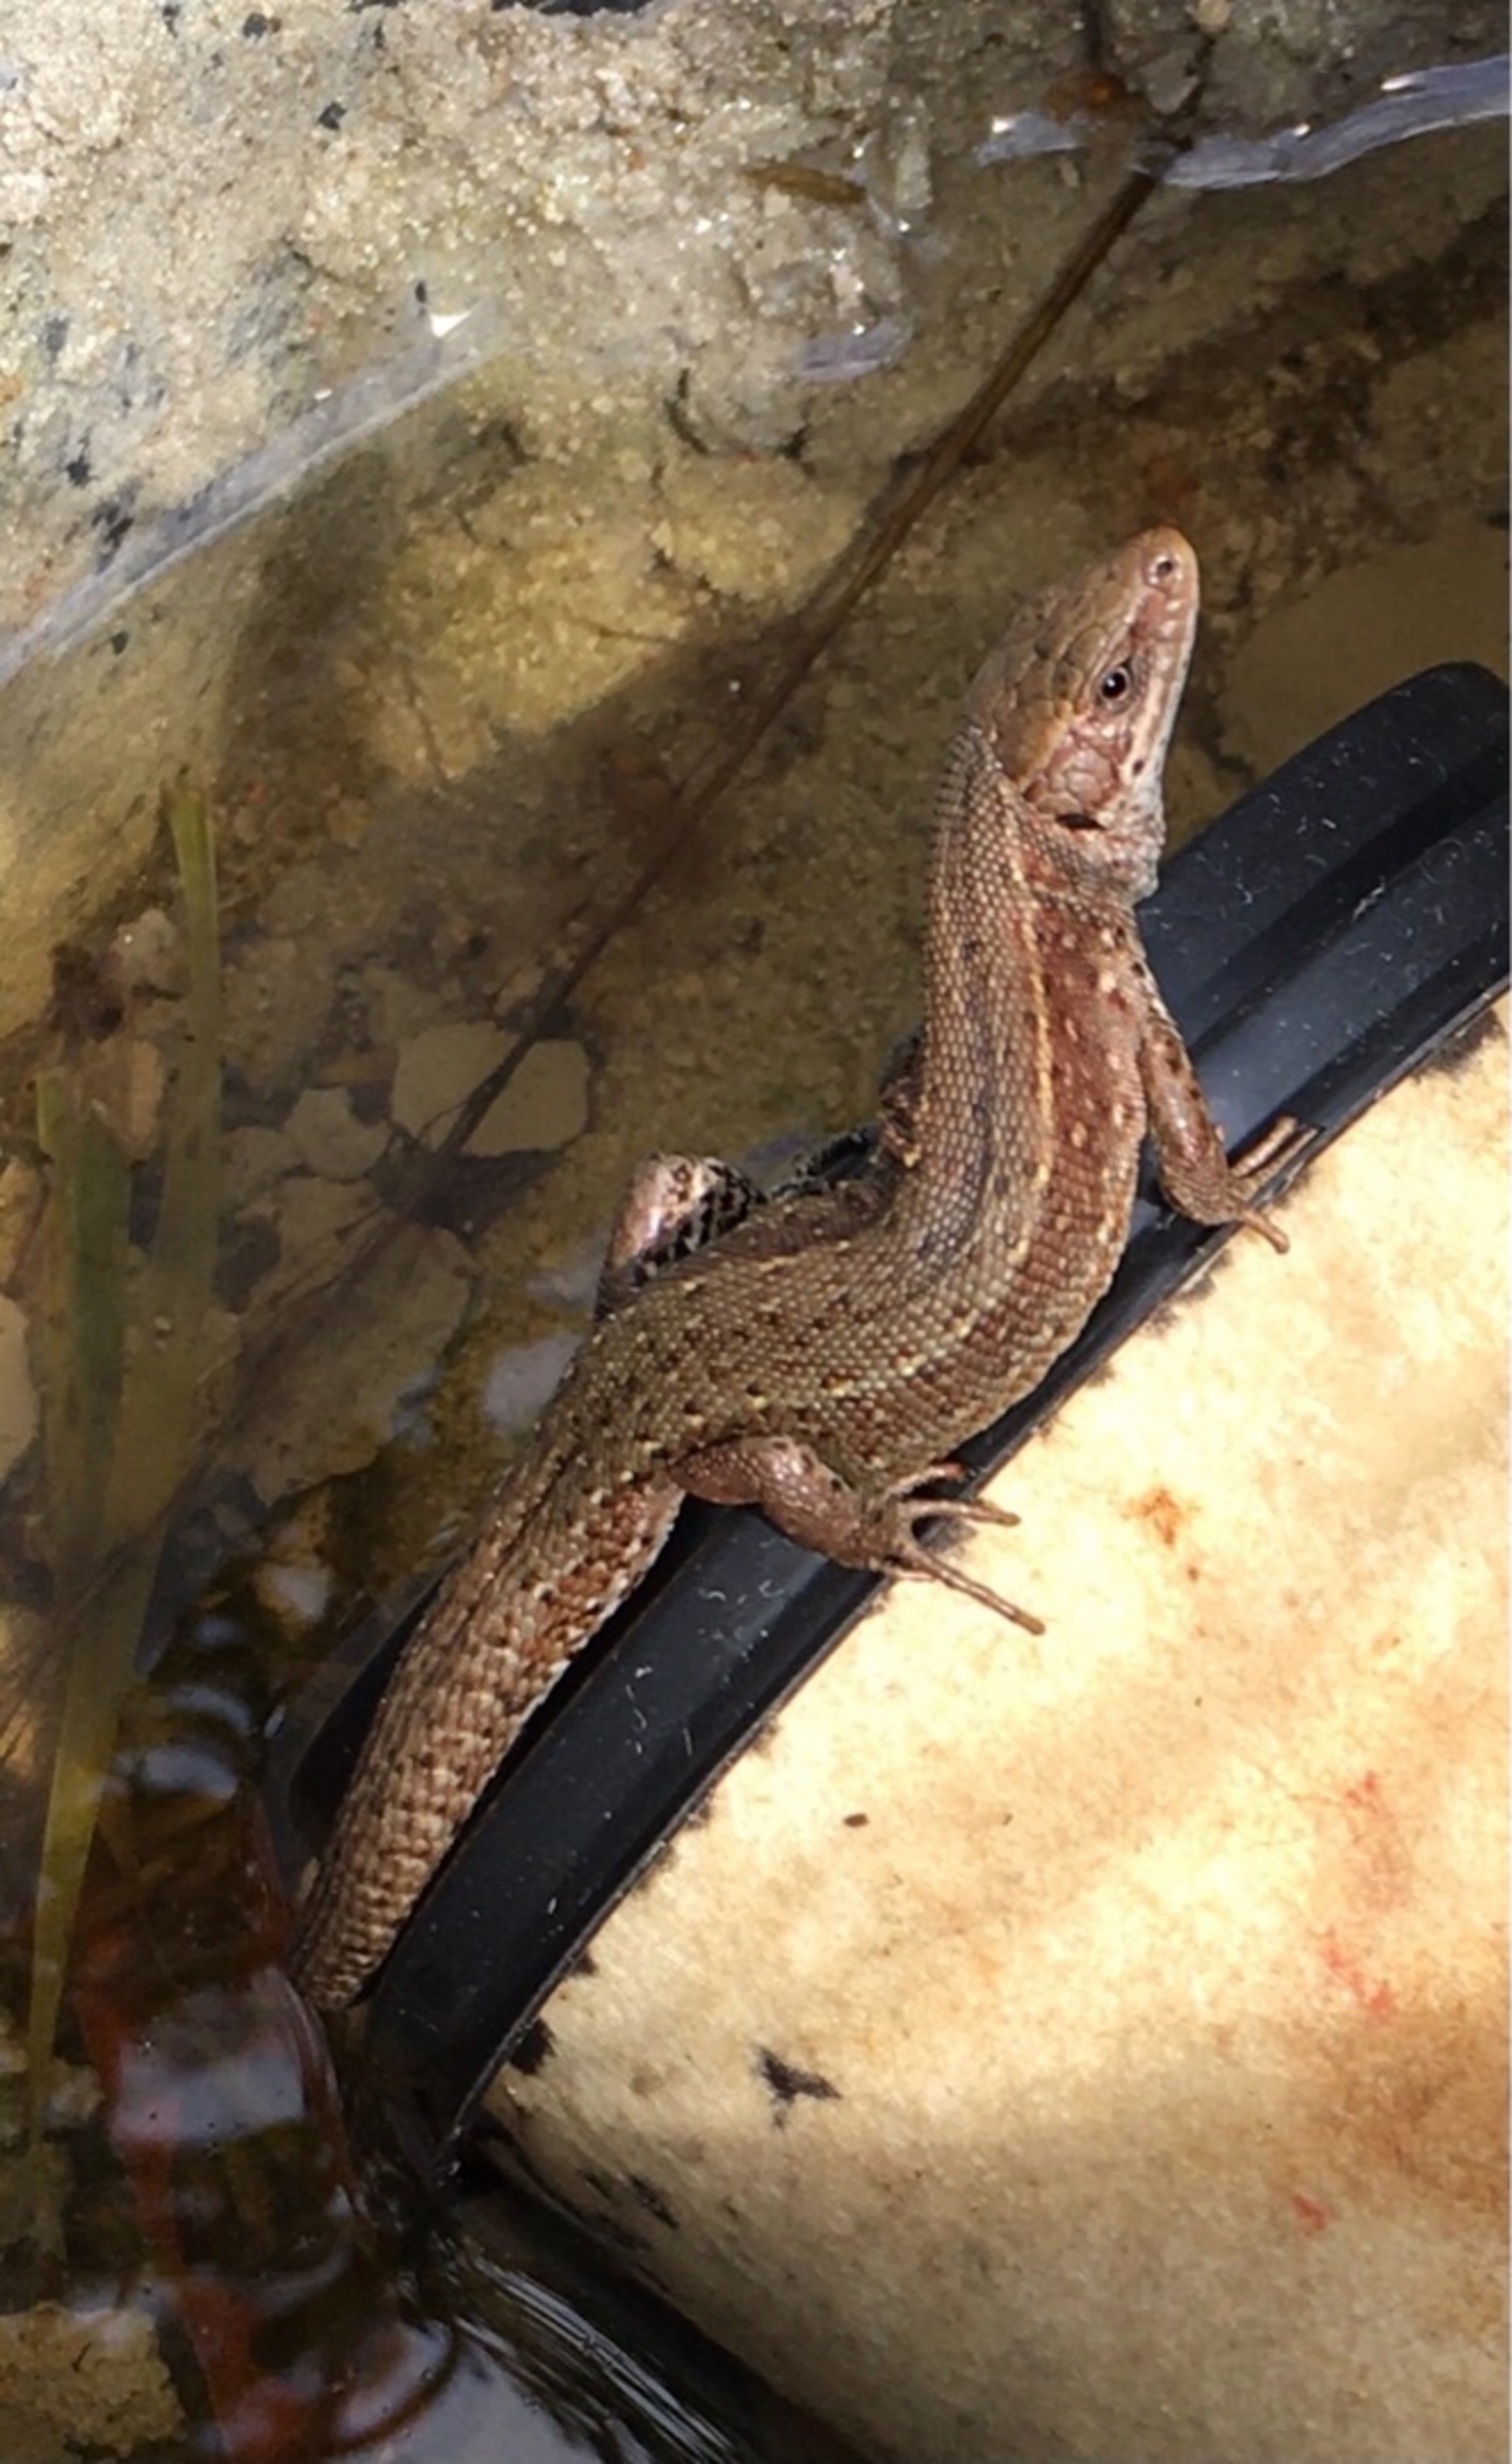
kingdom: Animalia
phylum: Chordata
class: Squamata
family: Lacertidae
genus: Zootoca
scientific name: Zootoca vivipara
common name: Skovfirben
